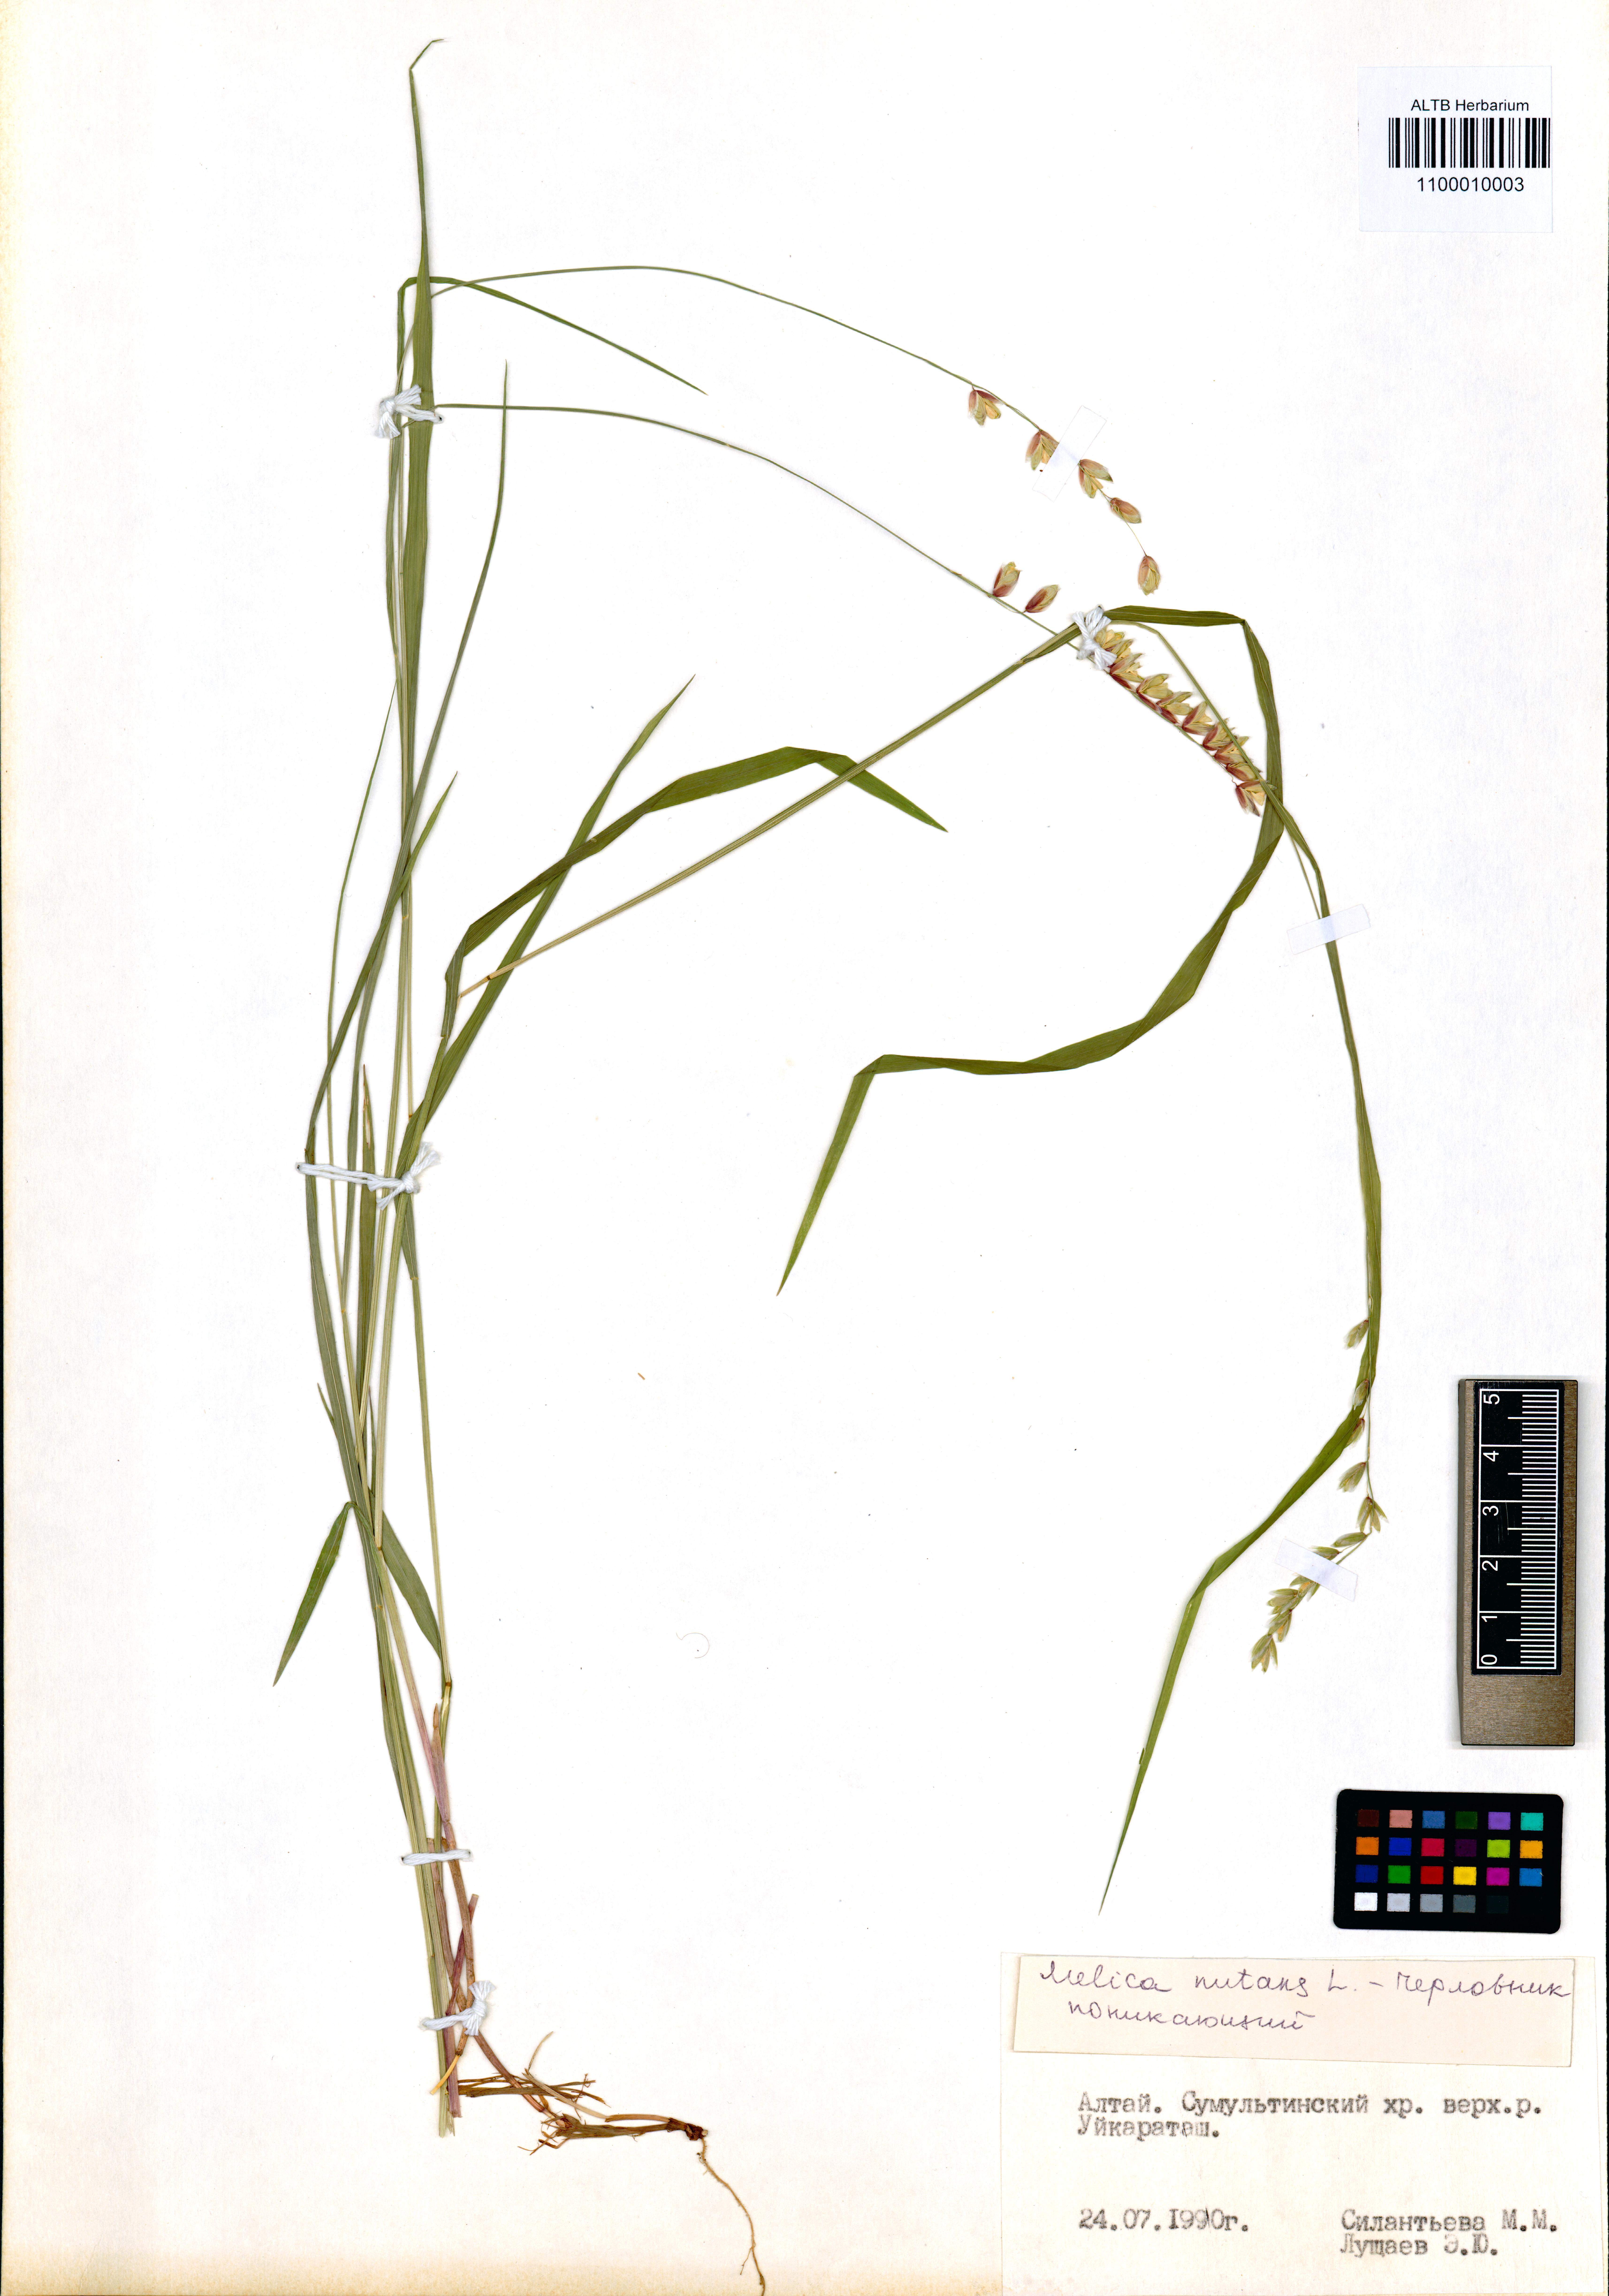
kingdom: Plantae
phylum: Tracheophyta
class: Liliopsida
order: Poales
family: Poaceae
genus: Melica
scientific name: Melica nutans
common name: Mountain melick
